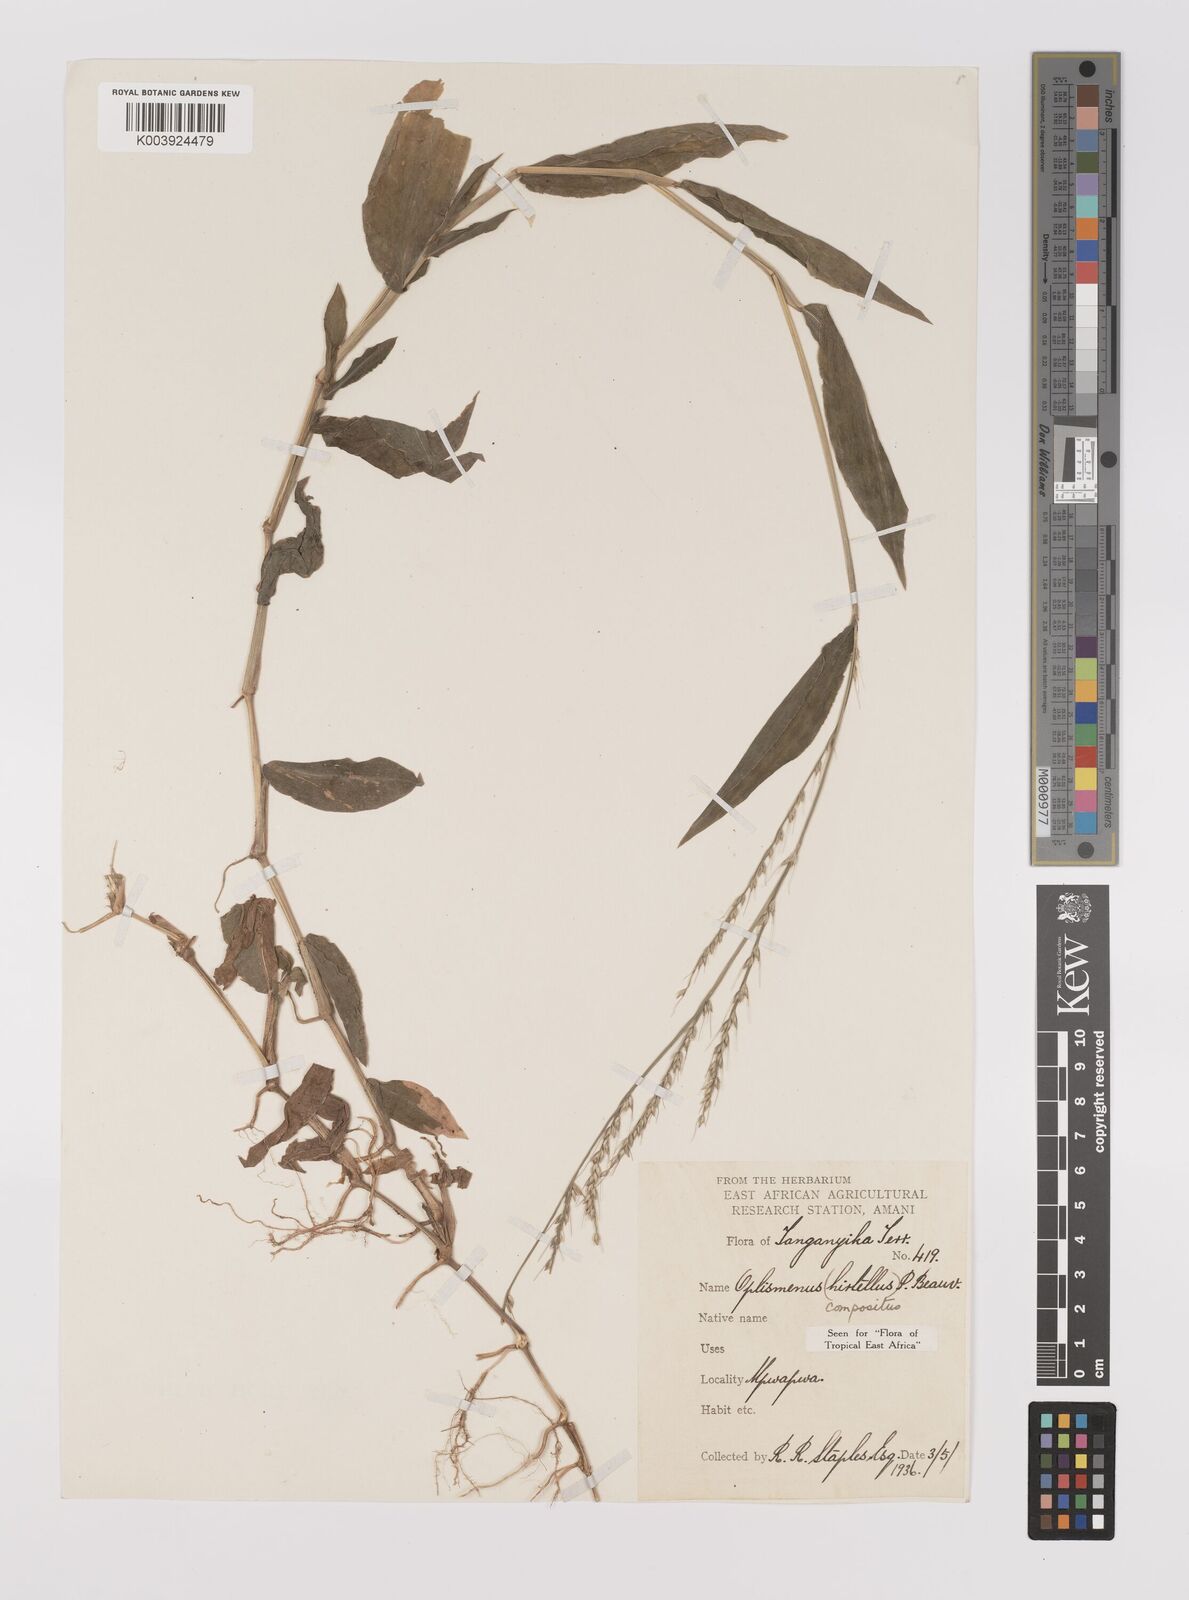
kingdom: Plantae
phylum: Tracheophyta
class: Liliopsida
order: Poales
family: Poaceae
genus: Oplismenus
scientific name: Oplismenus compositus
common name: Running mountain grass
